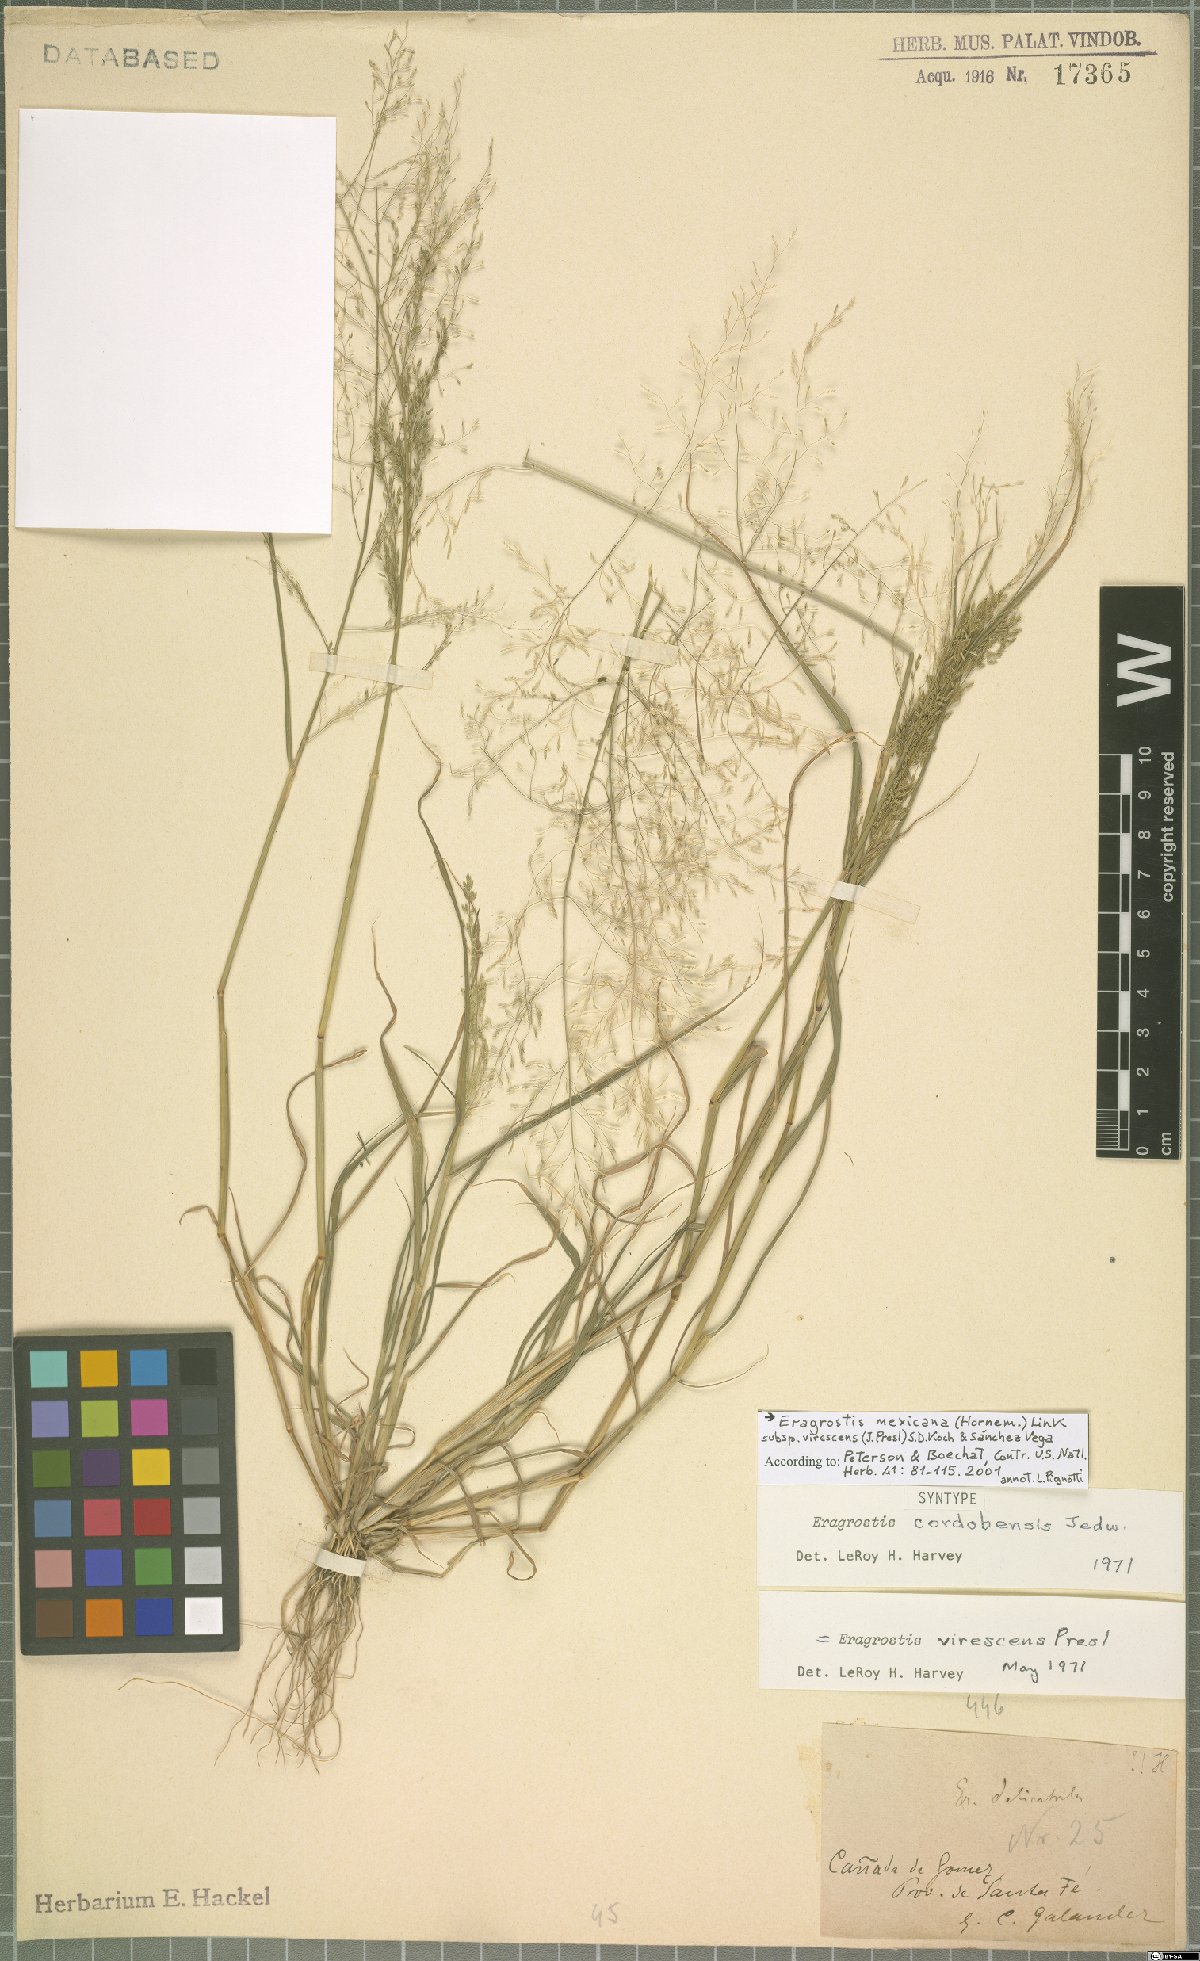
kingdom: Plantae
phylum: Tracheophyta
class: Liliopsida
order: Poales
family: Poaceae
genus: Eragrostis
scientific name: Eragrostis virescens
